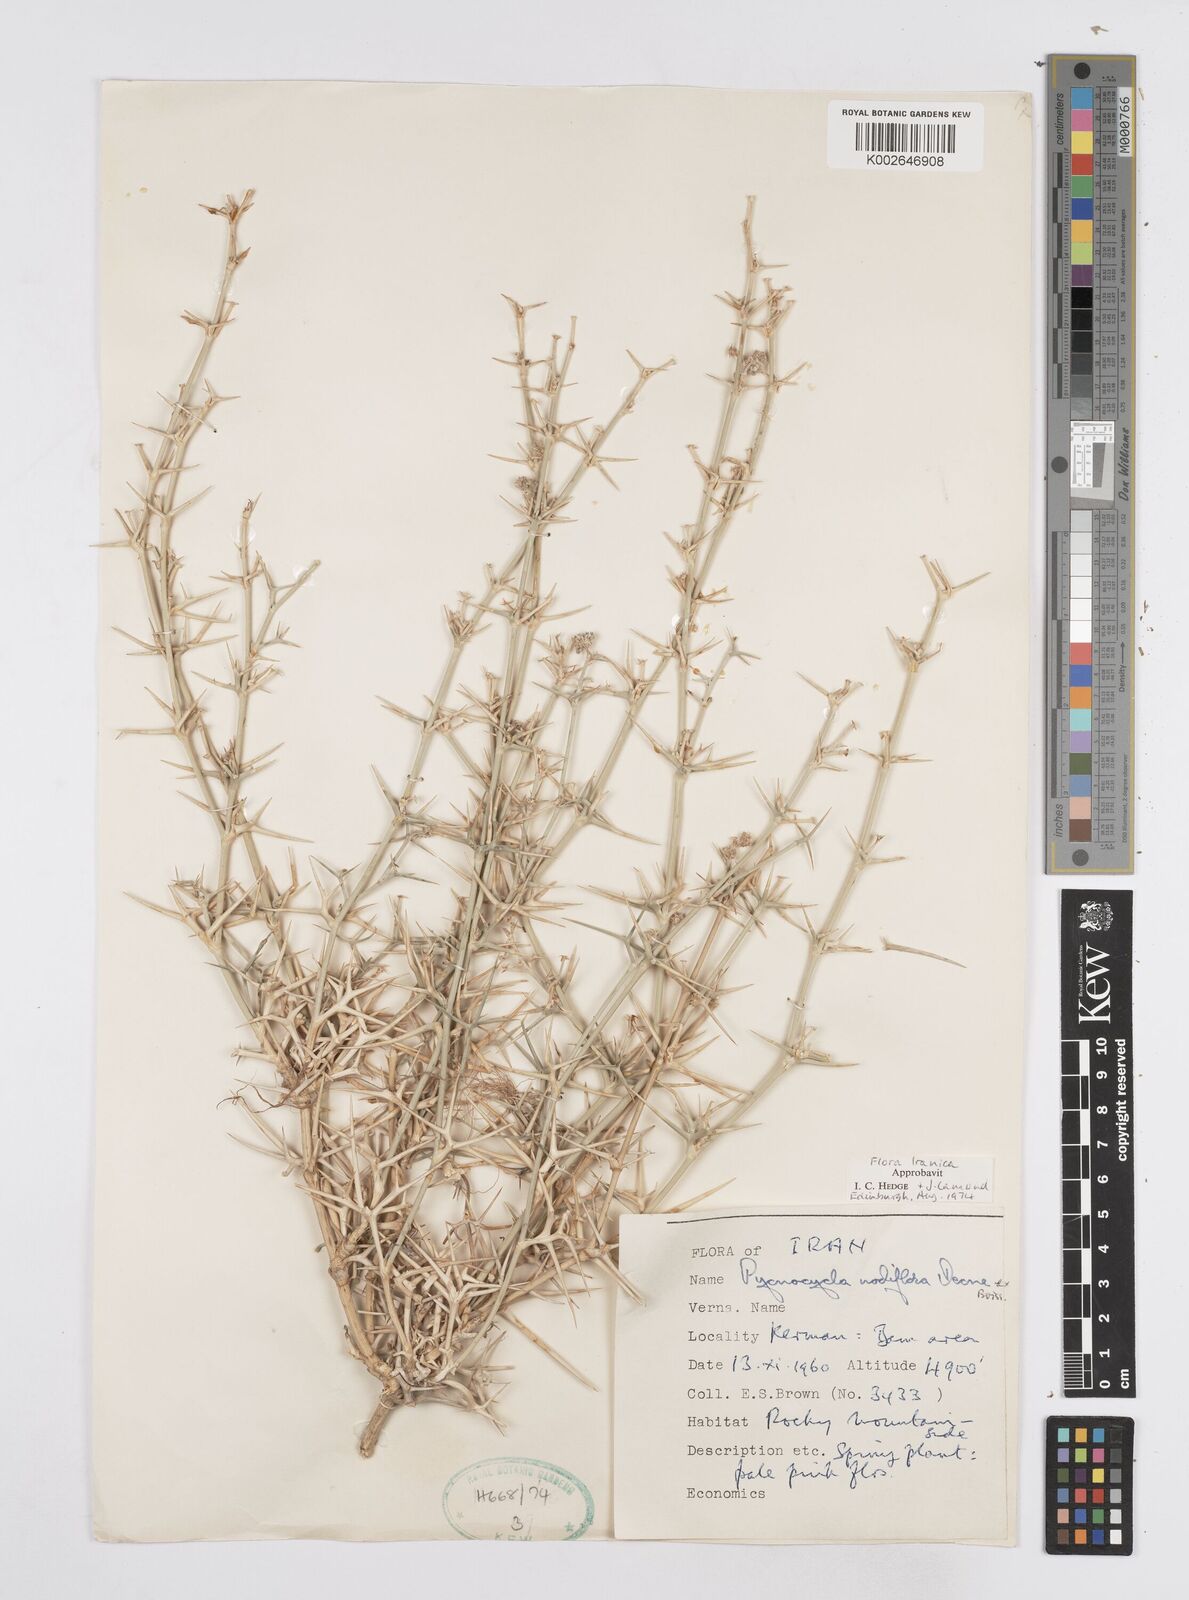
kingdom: Plantae
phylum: Tracheophyta
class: Magnoliopsida
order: Apiales
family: Apiaceae
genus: Pycnocycla
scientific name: Pycnocycla nodiflora
